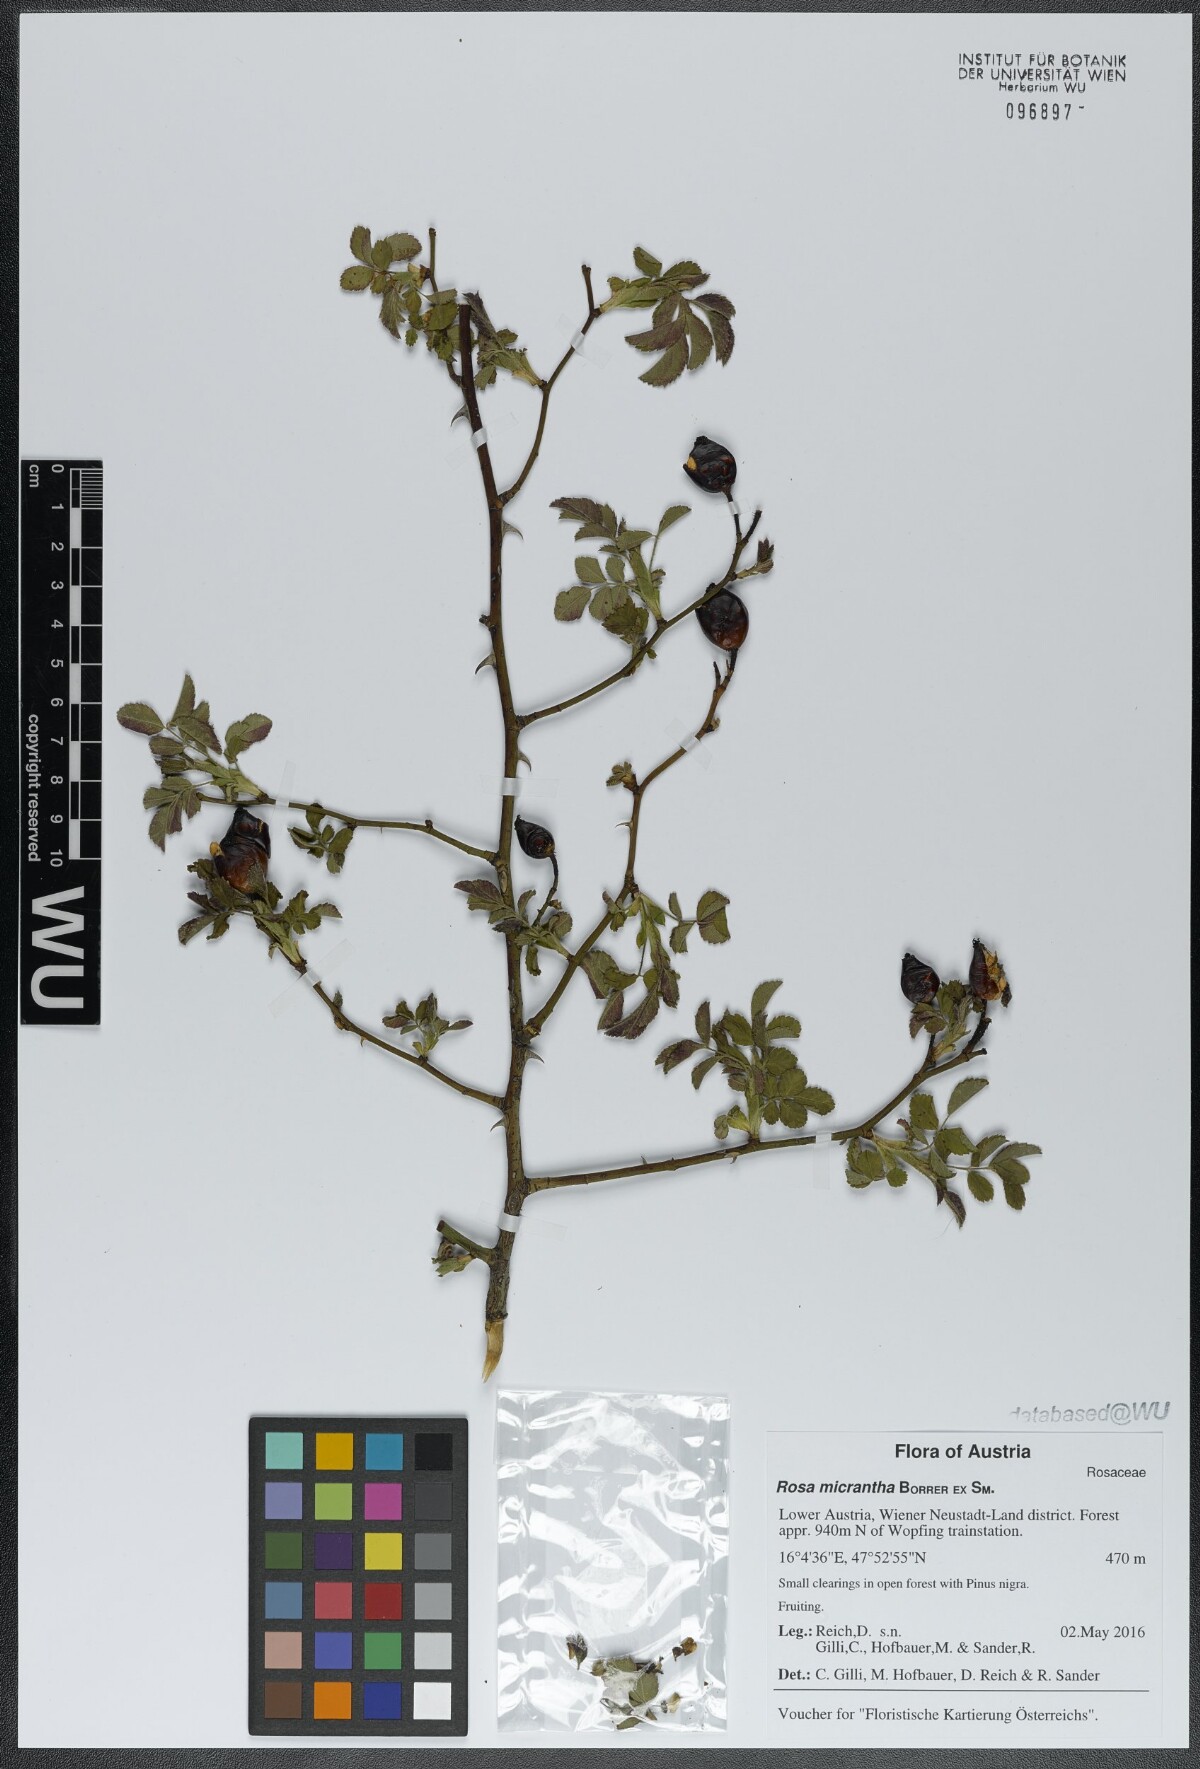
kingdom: Plantae
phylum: Tracheophyta
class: Magnoliopsida
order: Rosales
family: Rosaceae
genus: Rosa
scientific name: Rosa micrantha
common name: Small-flowered sweet-briar
